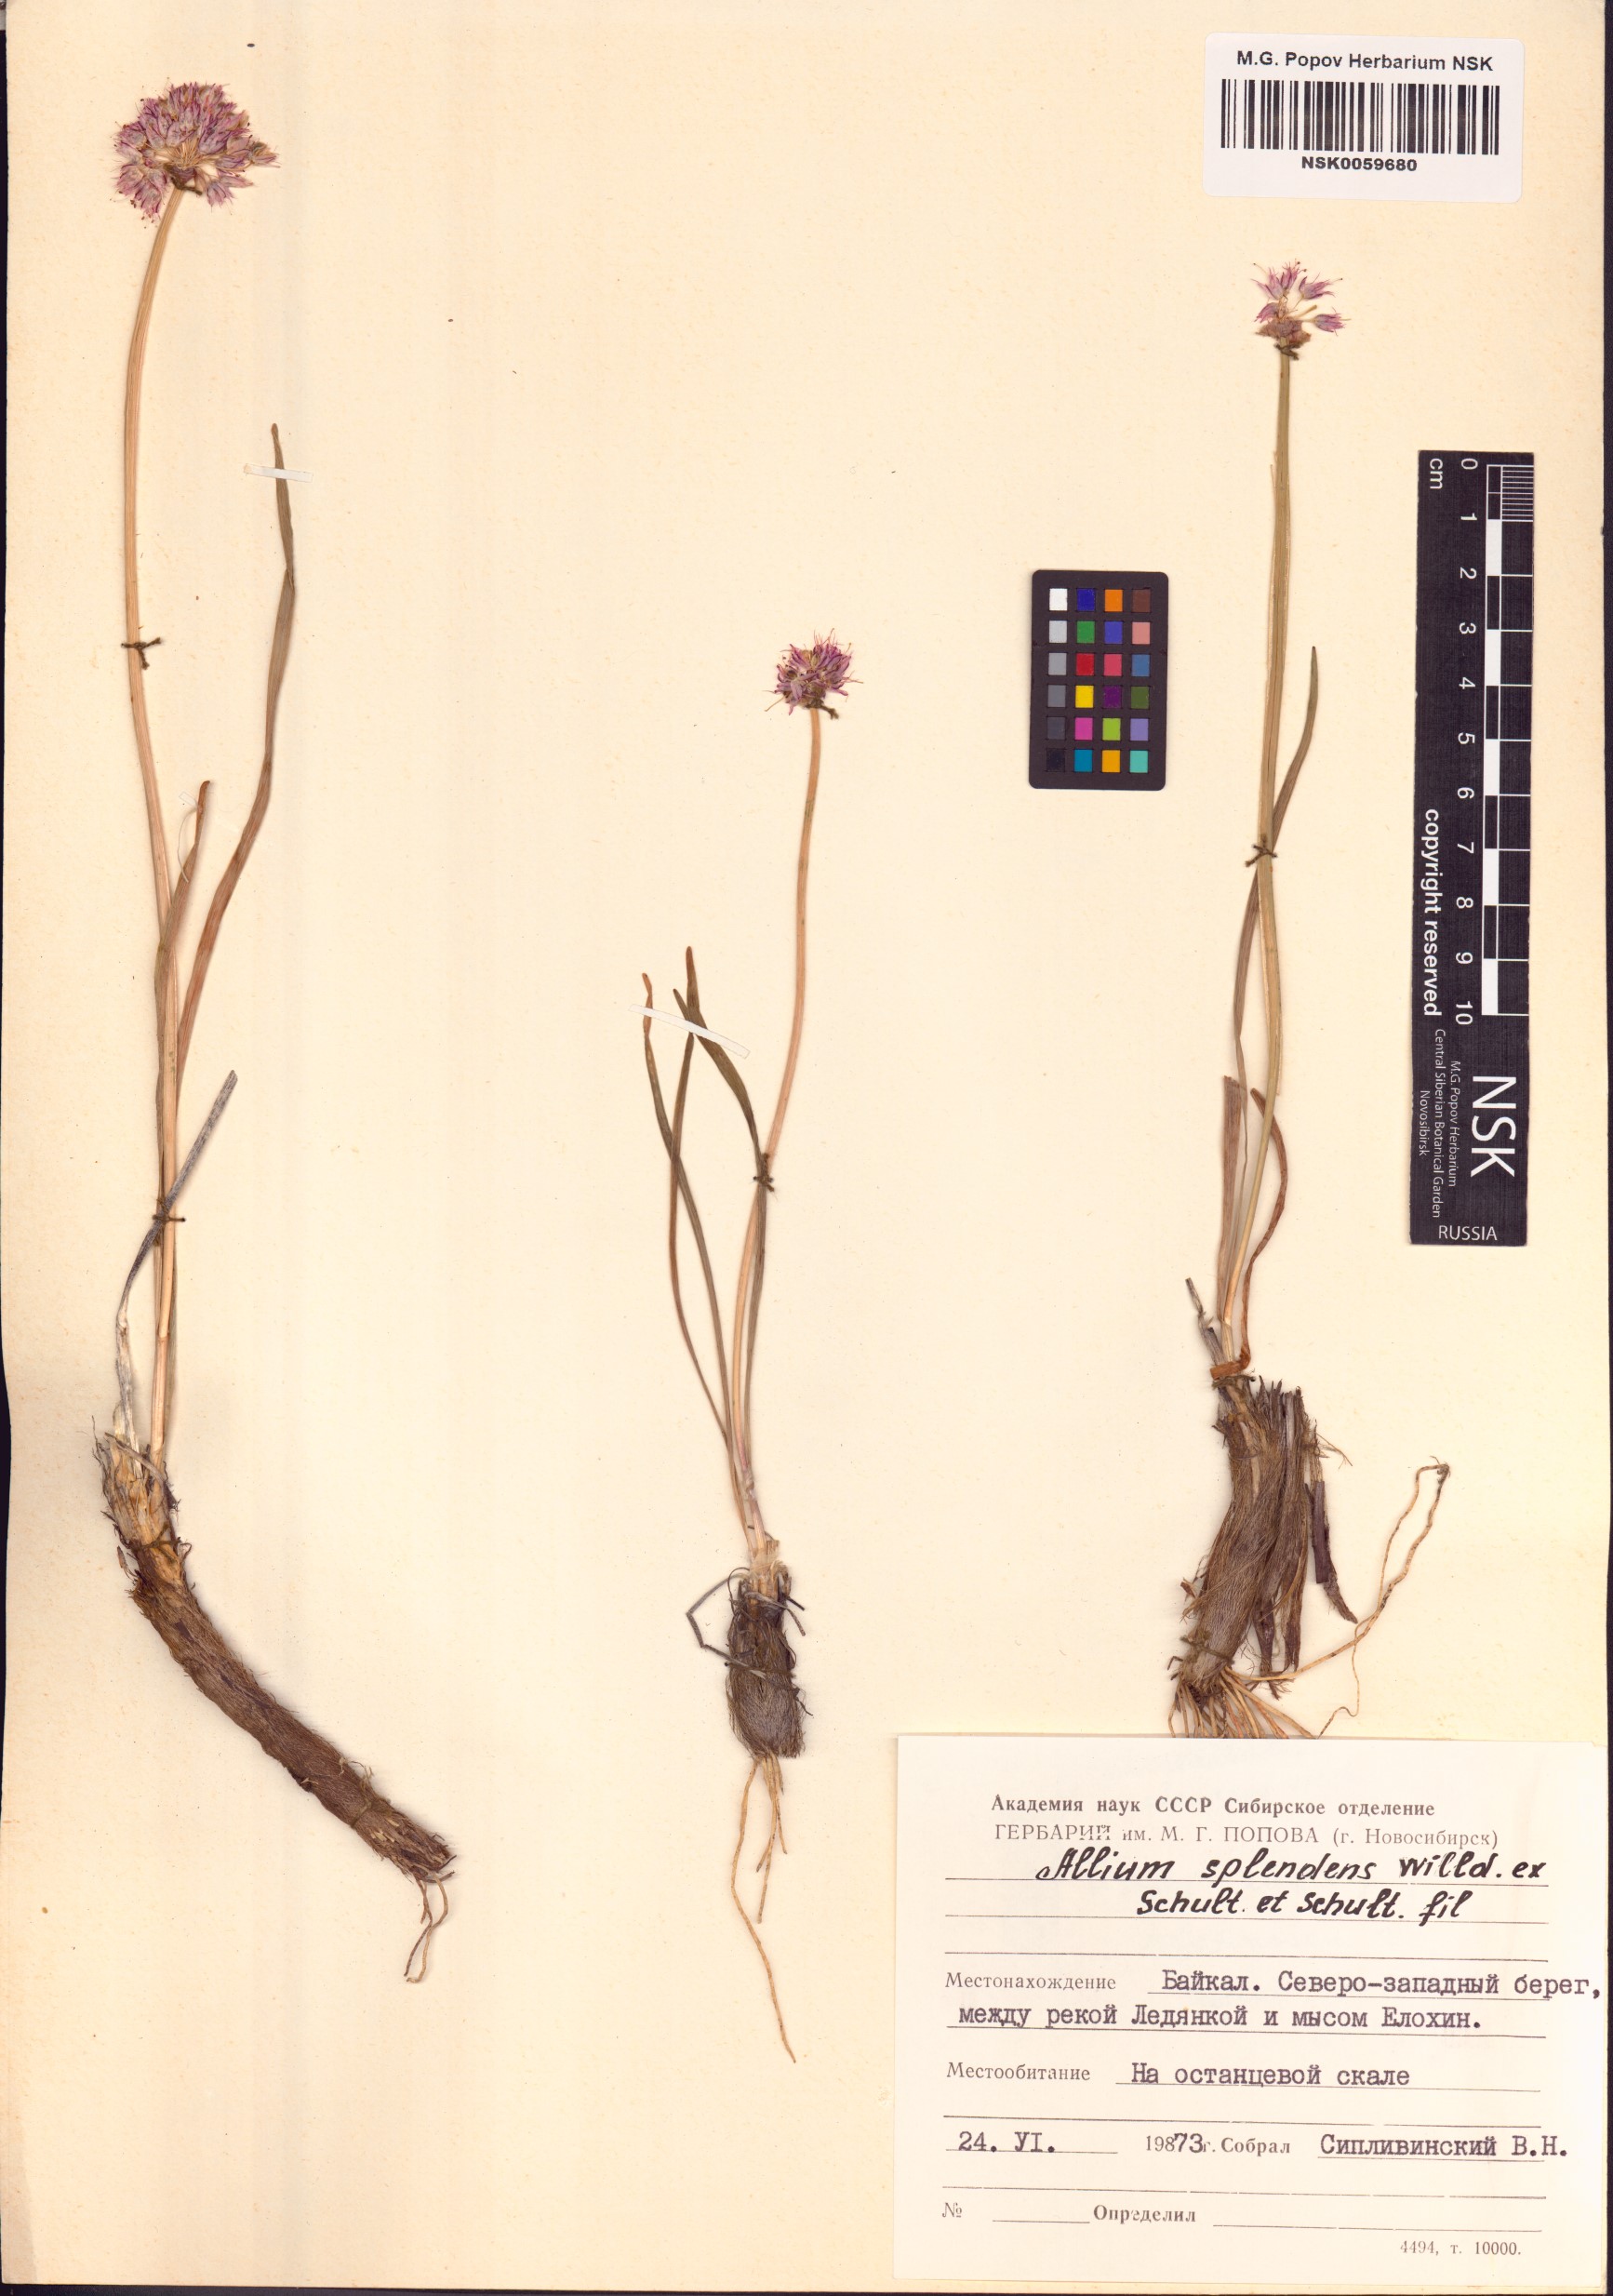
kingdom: Plantae
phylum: Tracheophyta
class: Liliopsida
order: Asparagales
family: Amaryllidaceae
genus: Allium
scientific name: Allium splendens
